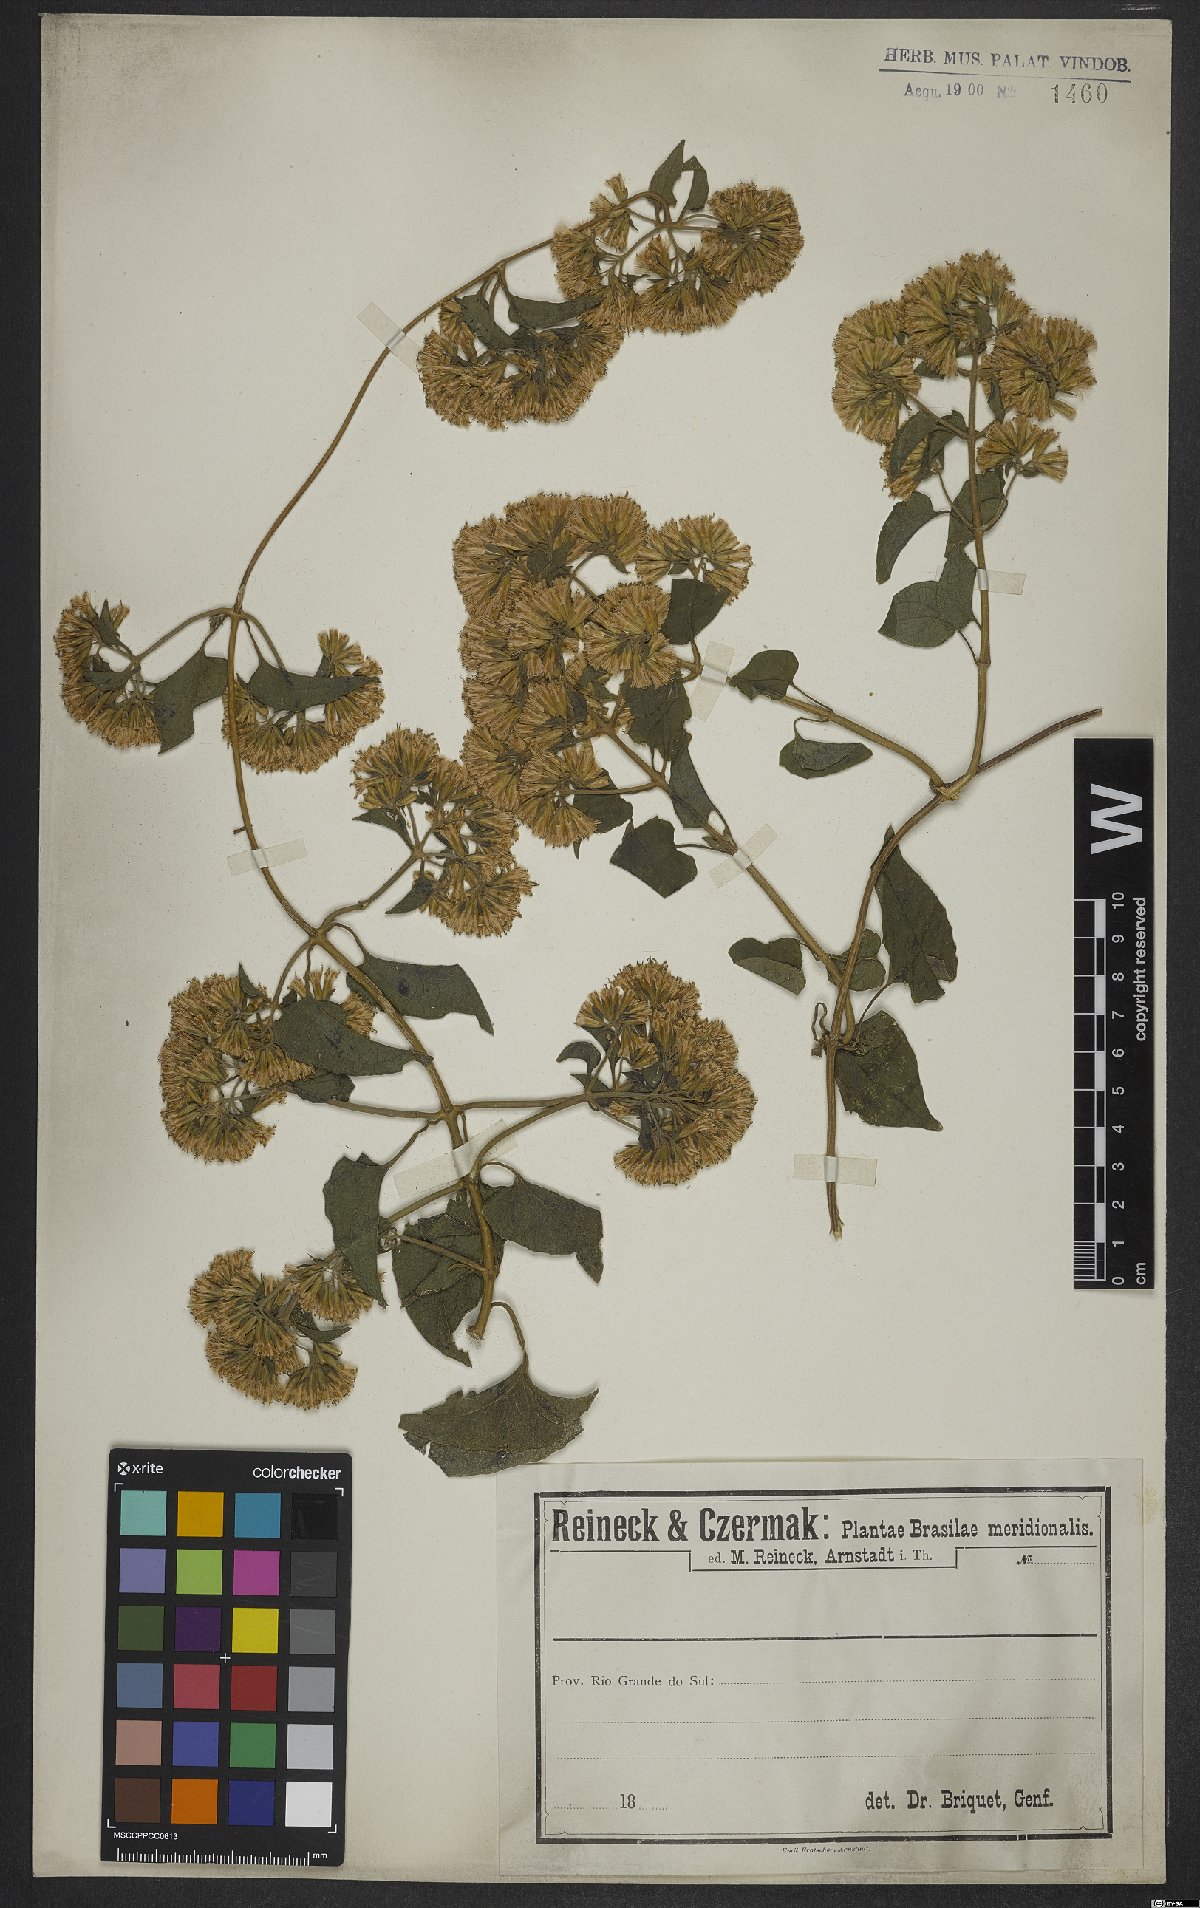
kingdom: Plantae
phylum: Tracheophyta
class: Magnoliopsida
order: Asterales
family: Asteraceae
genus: Mikania
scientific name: Mikania
